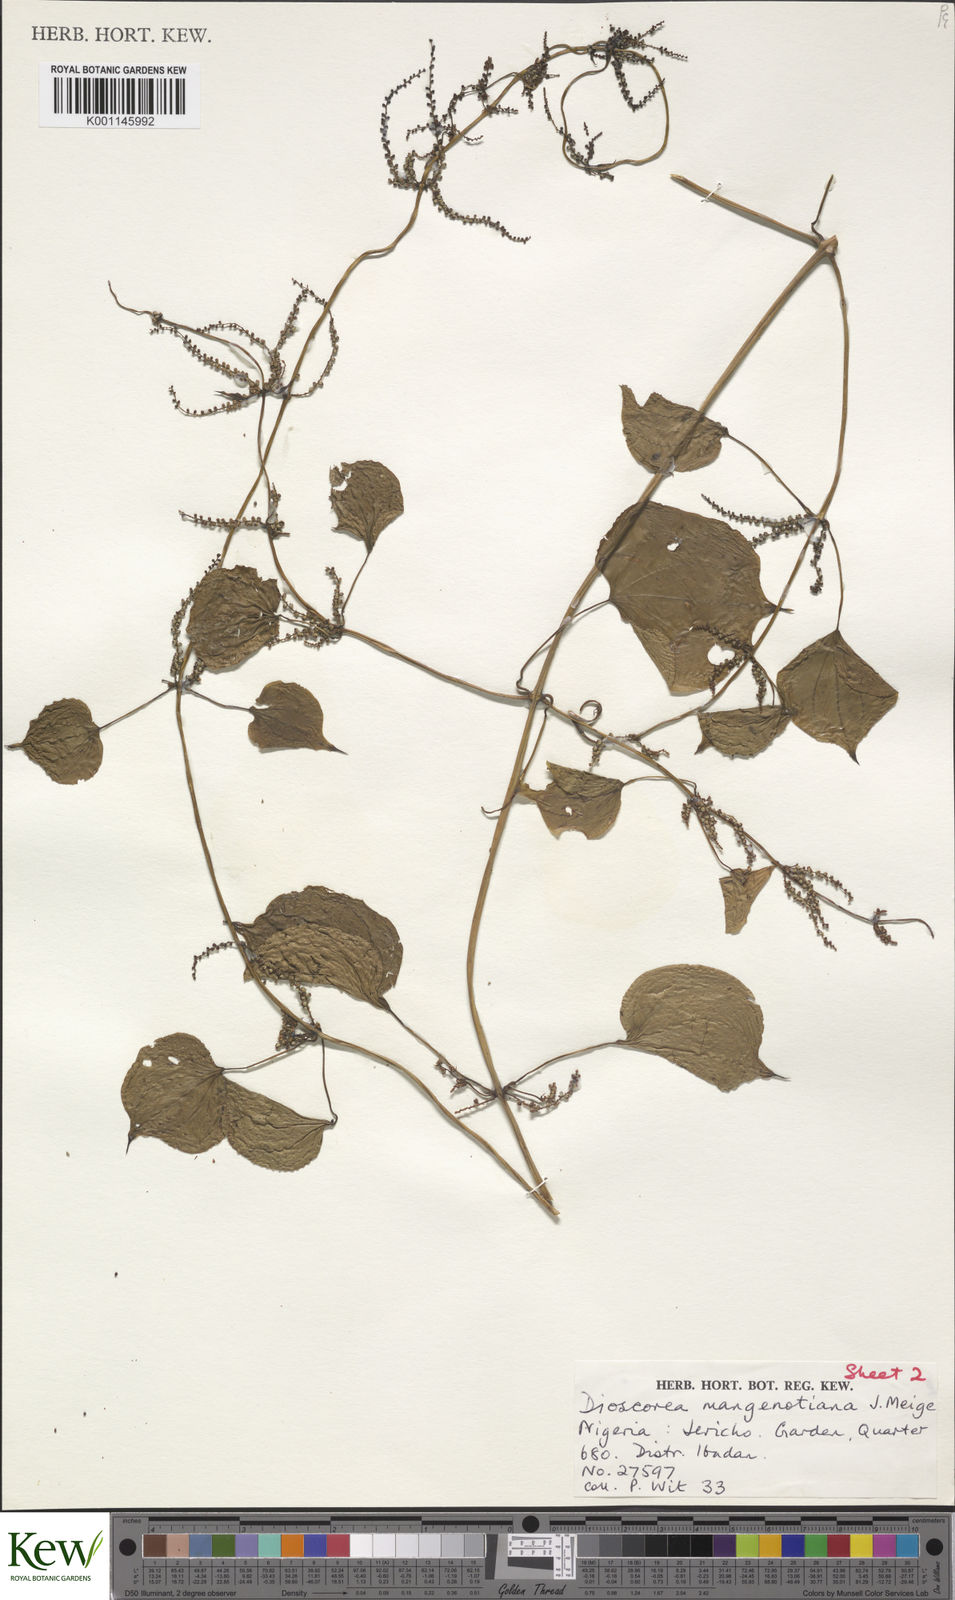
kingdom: Plantae
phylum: Tracheophyta
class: Liliopsida
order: Dioscoreales
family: Dioscoreaceae
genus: Dioscorea
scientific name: Dioscorea
